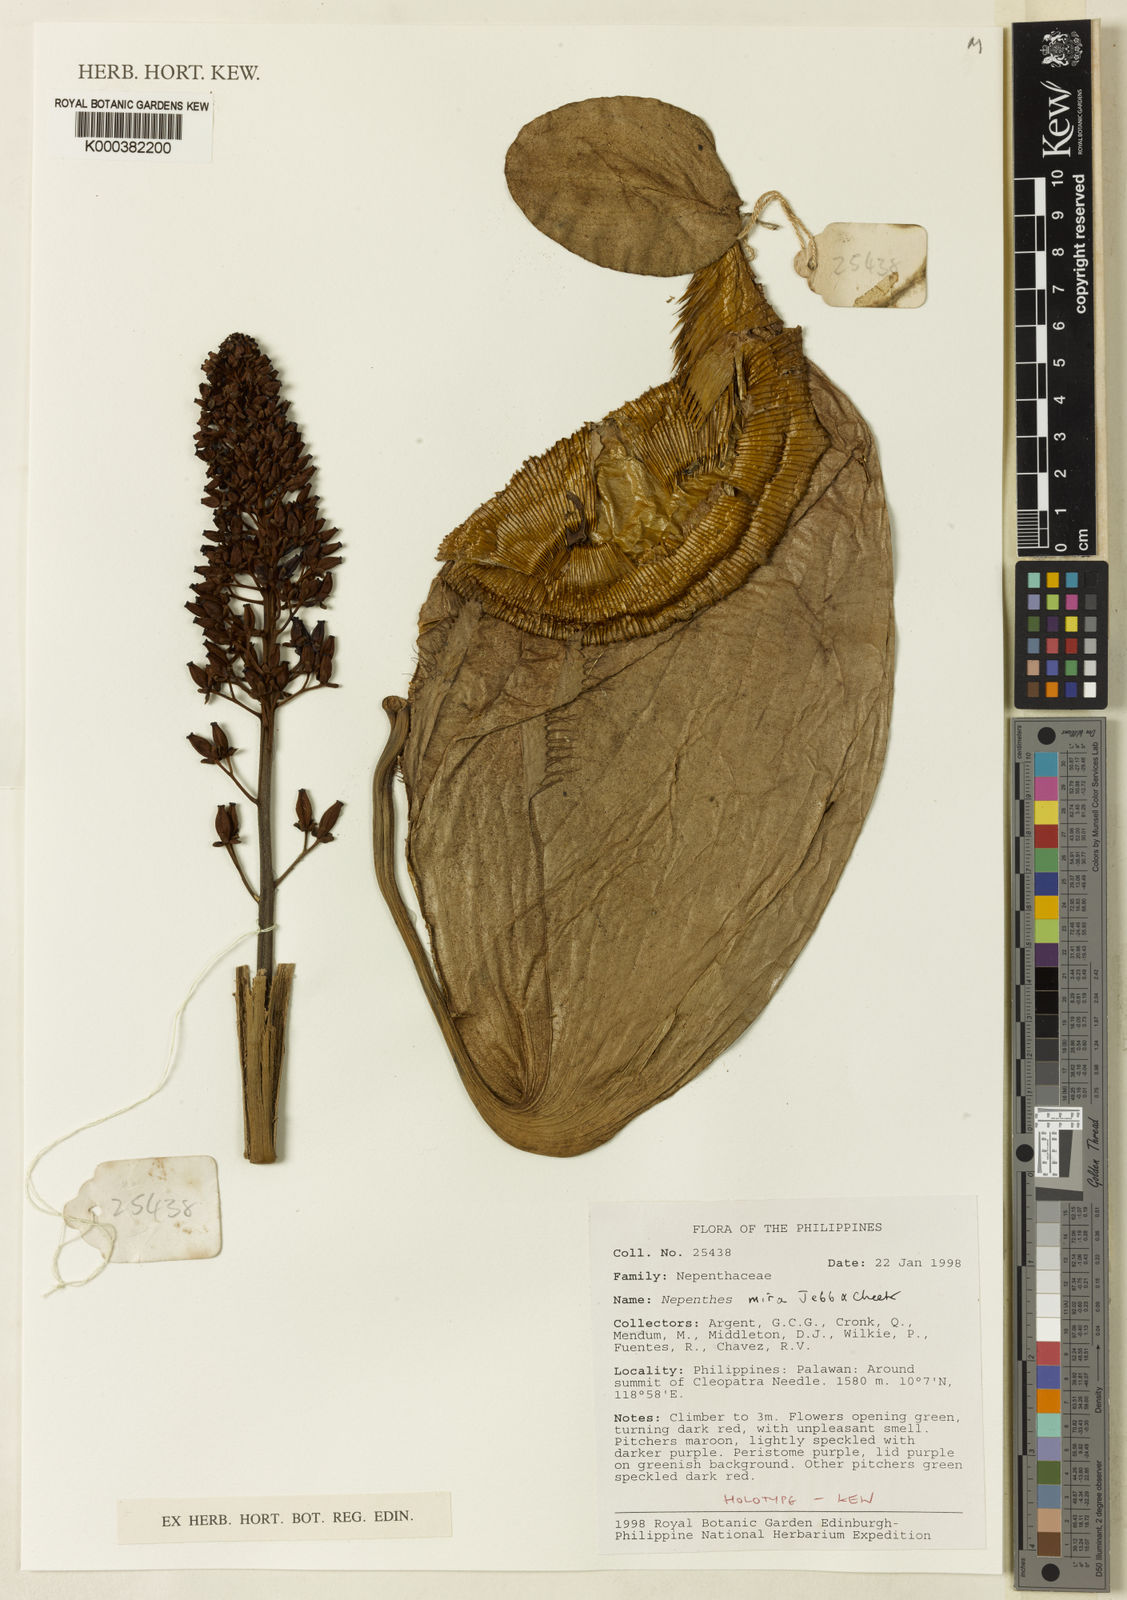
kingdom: Plantae
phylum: Tracheophyta
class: Magnoliopsida
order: Caryophyllales
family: Nepenthaceae
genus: Nepenthes
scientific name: Nepenthes deaniana
